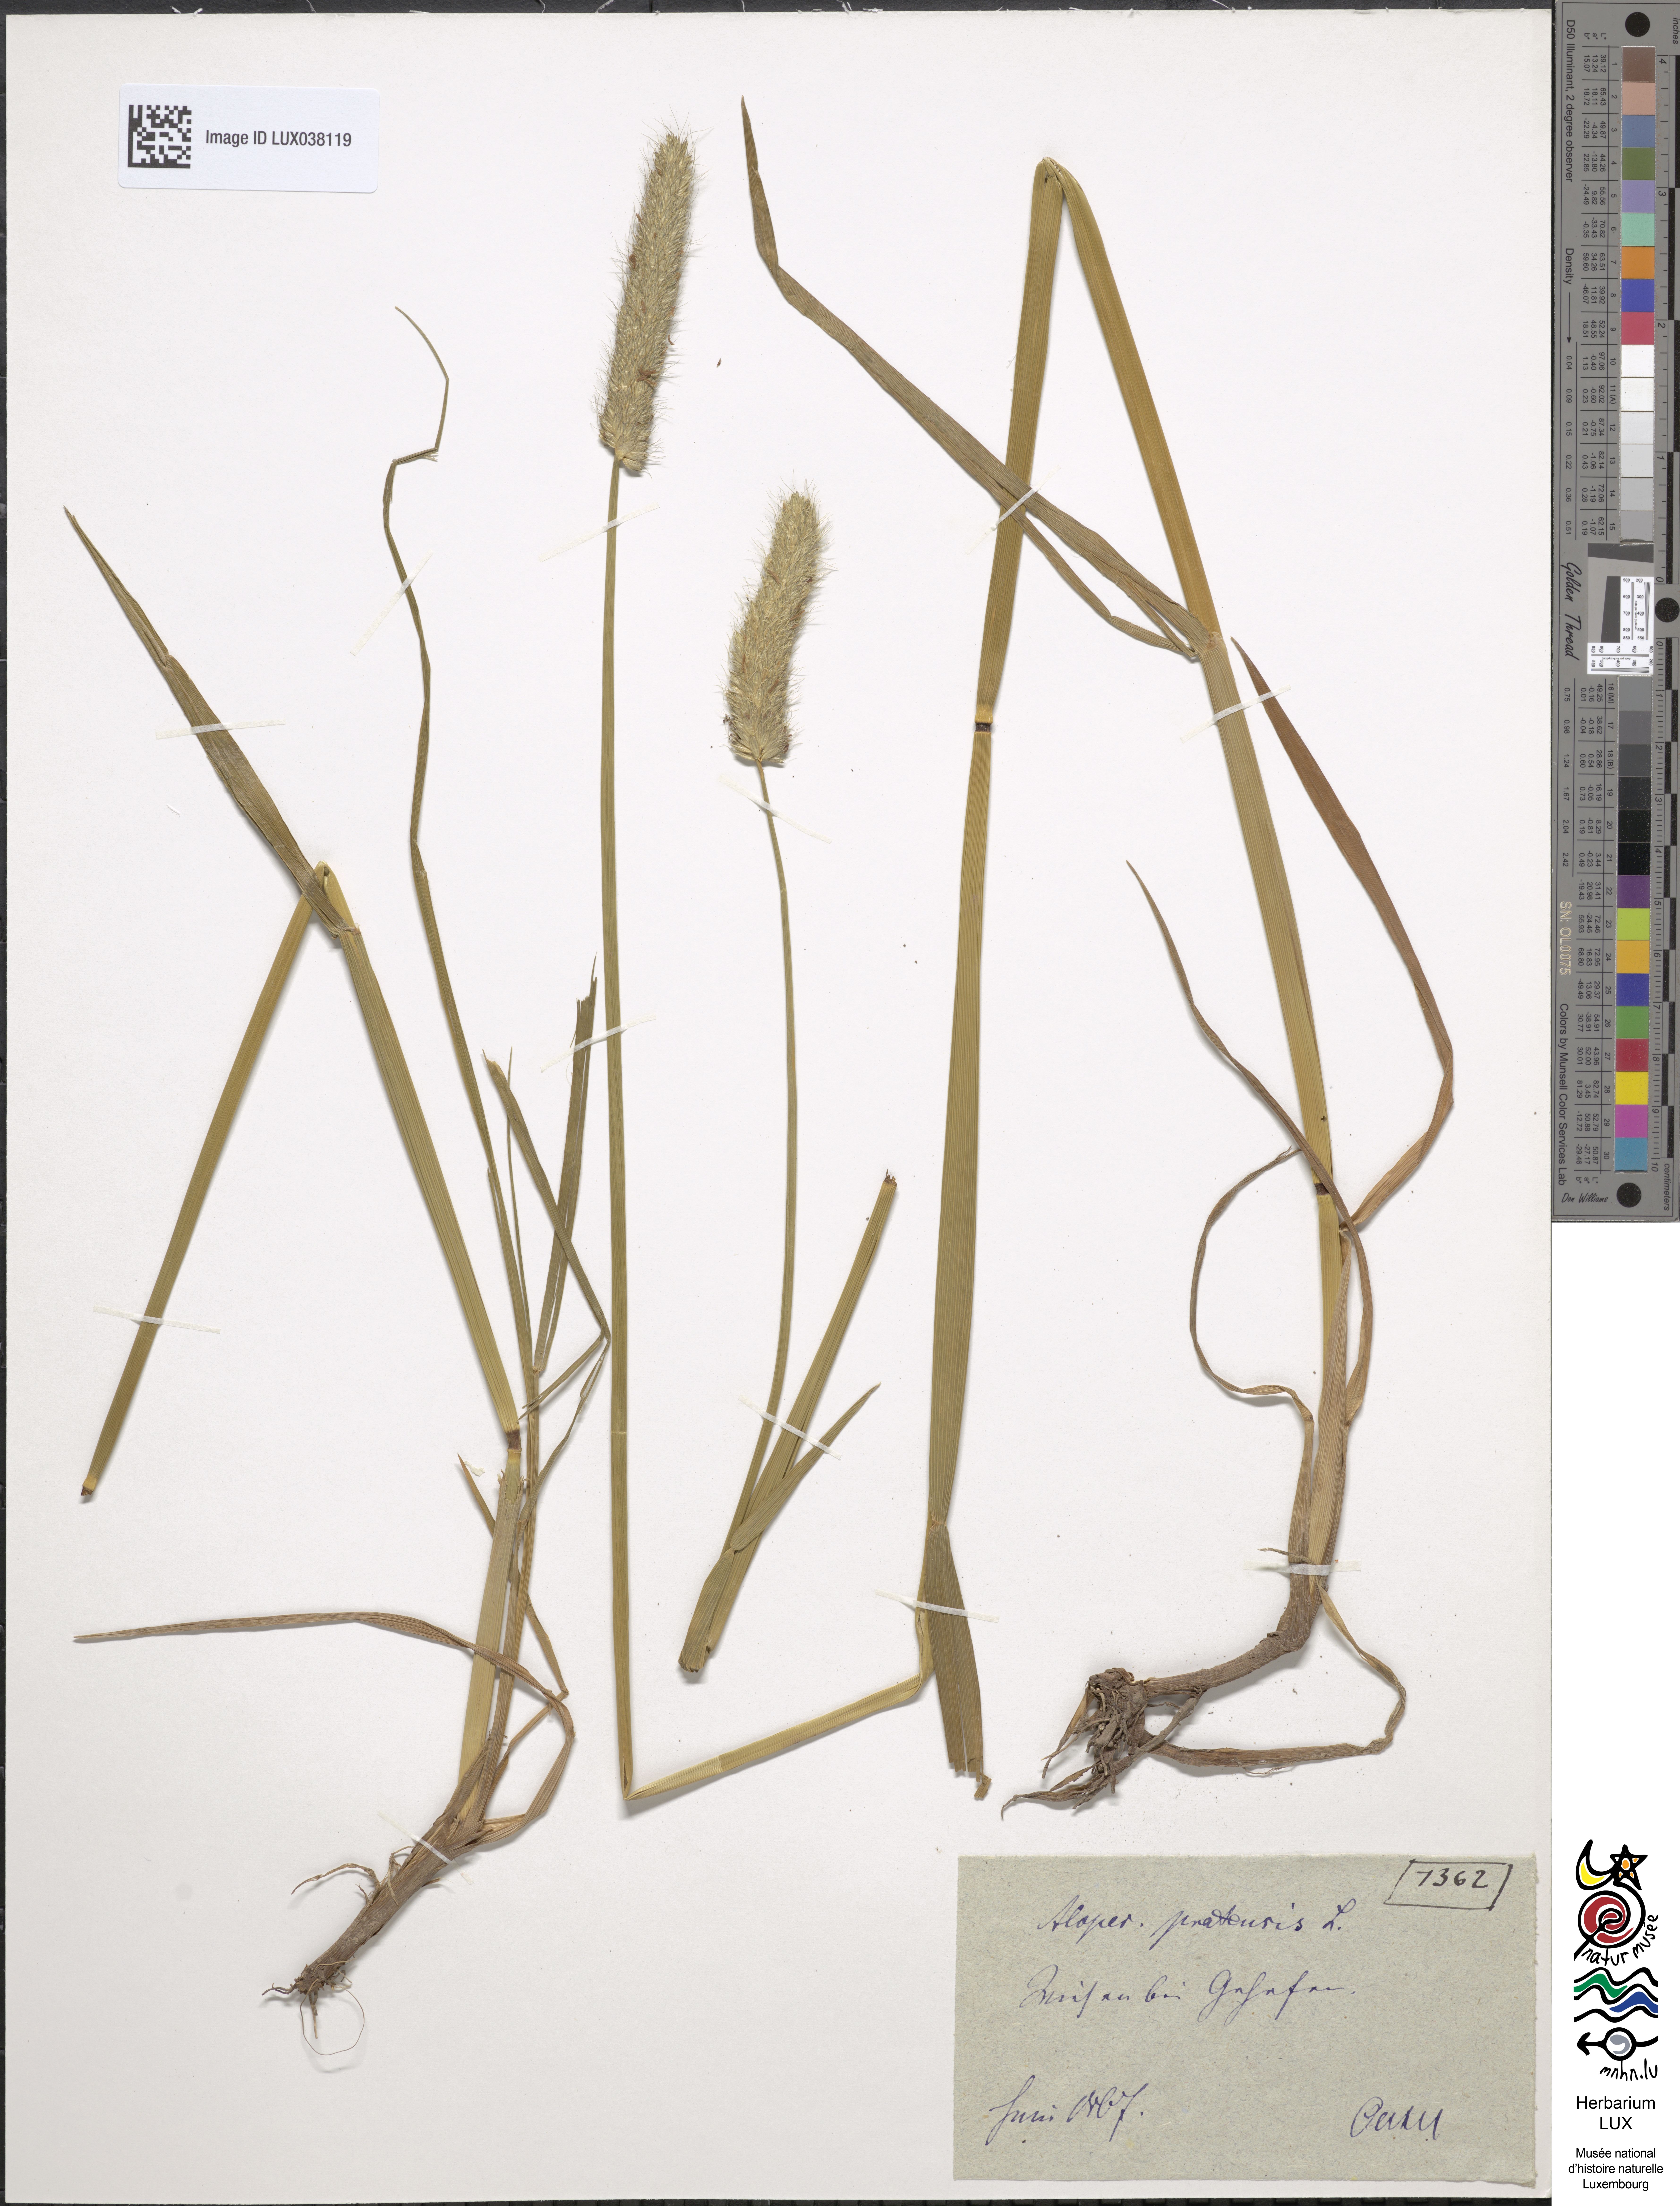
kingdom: Plantae
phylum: Tracheophyta
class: Liliopsida
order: Poales
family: Poaceae
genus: Alopecurus
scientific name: Alopecurus pratensis
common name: Meadow foxtail
